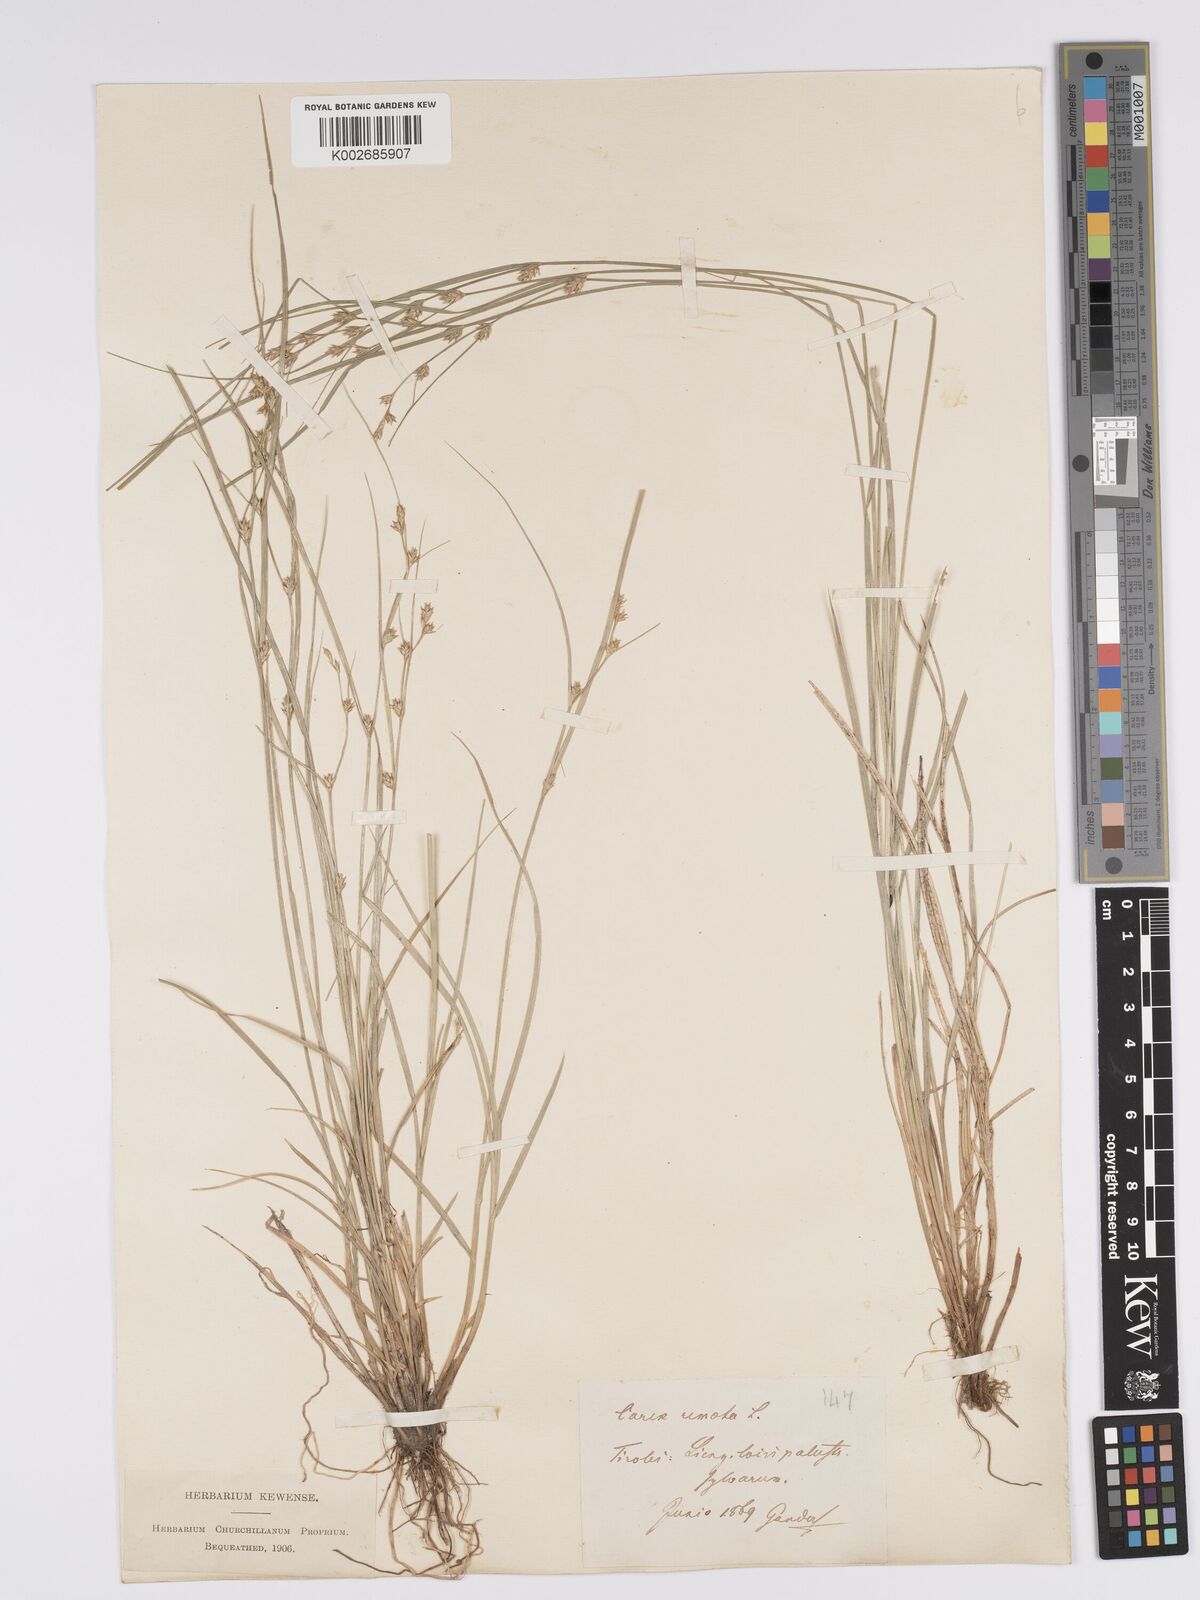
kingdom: Plantae
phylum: Tracheophyta
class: Liliopsida
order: Poales
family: Cyperaceae
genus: Carex
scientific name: Carex remota
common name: Remote sedge
